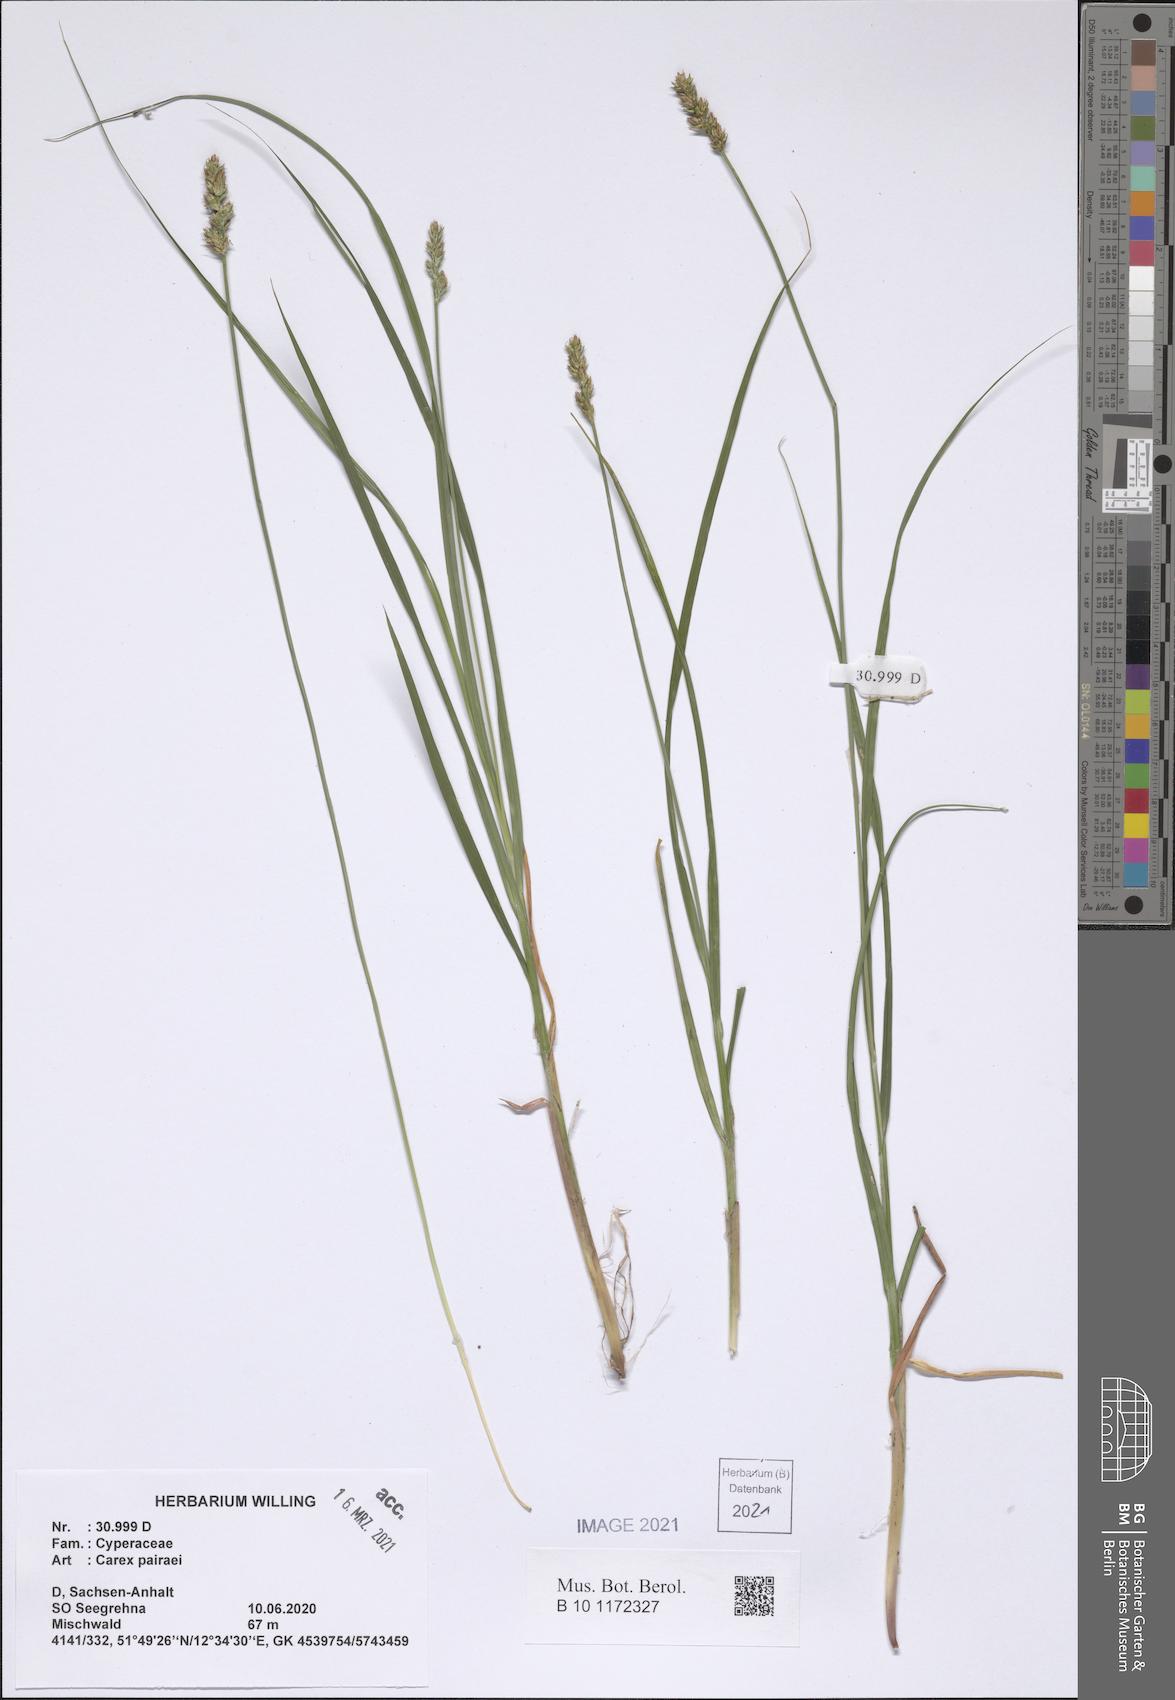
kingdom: Plantae
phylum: Tracheophyta
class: Liliopsida
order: Poales
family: Cyperaceae
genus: Carex
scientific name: Carex pairae
